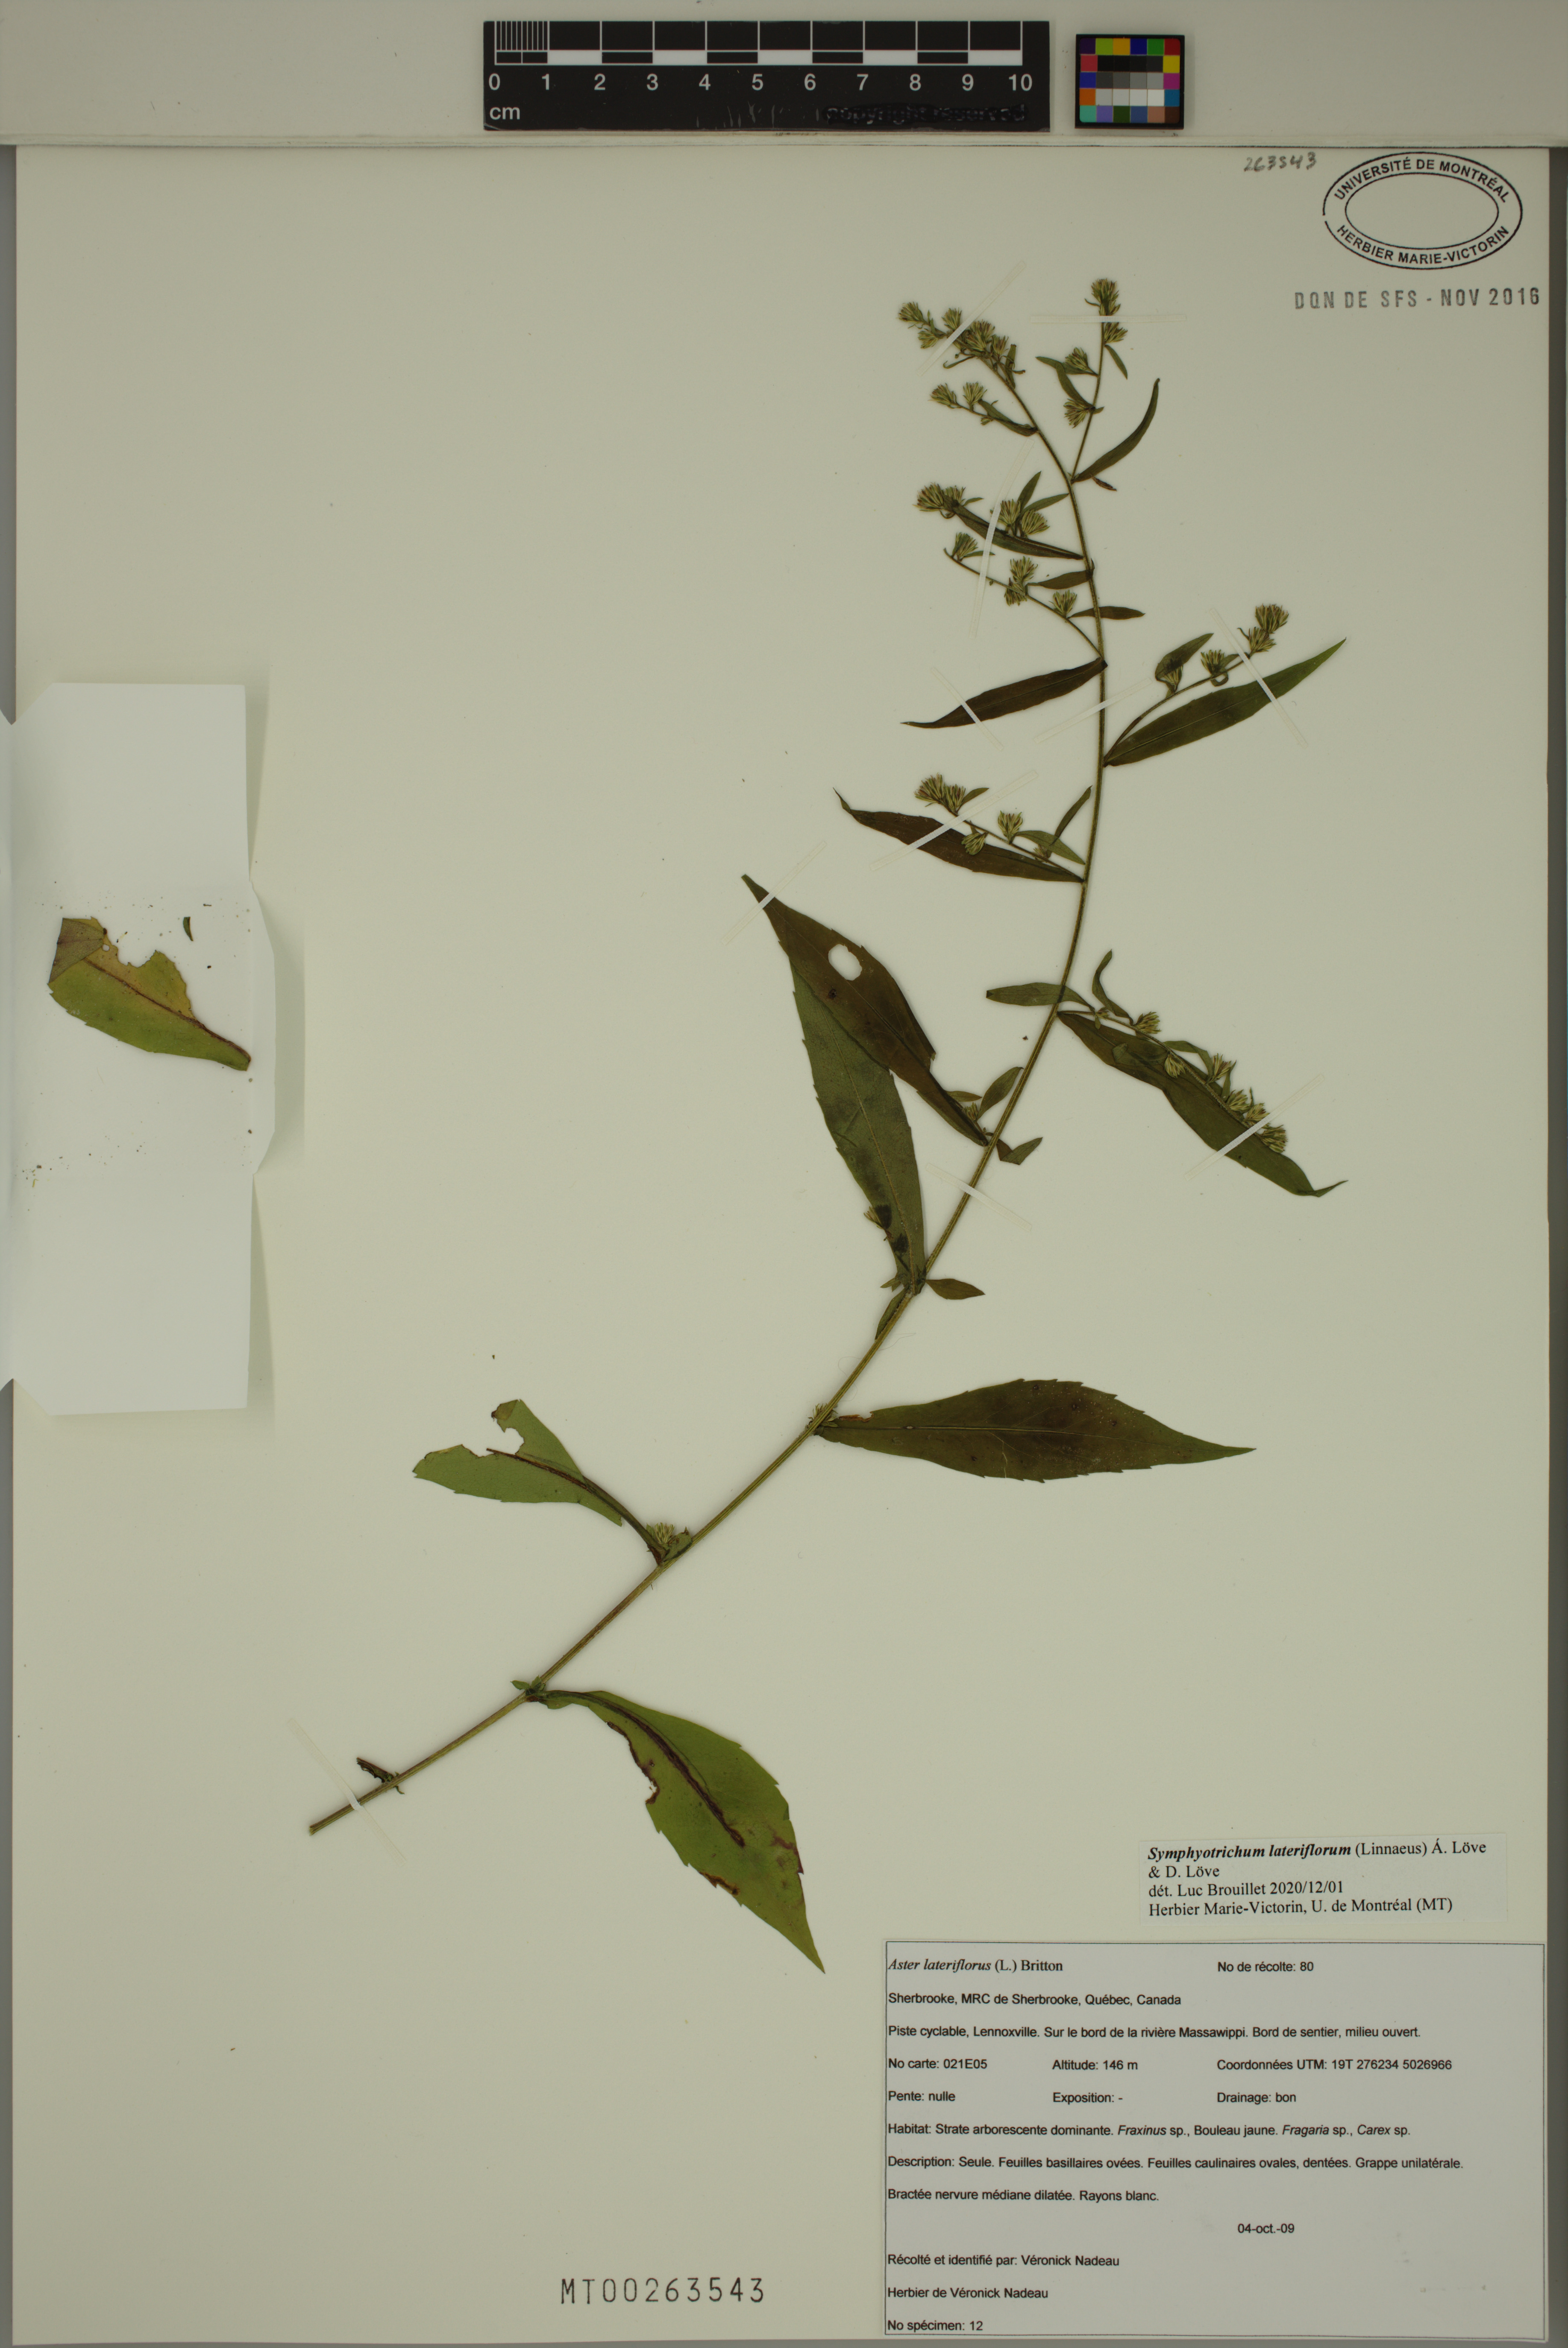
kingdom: Plantae
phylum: Tracheophyta
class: Magnoliopsida
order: Asterales
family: Asteraceae
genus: Symphyotrichum
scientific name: Symphyotrichum lateriflorum
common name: Calico aster
